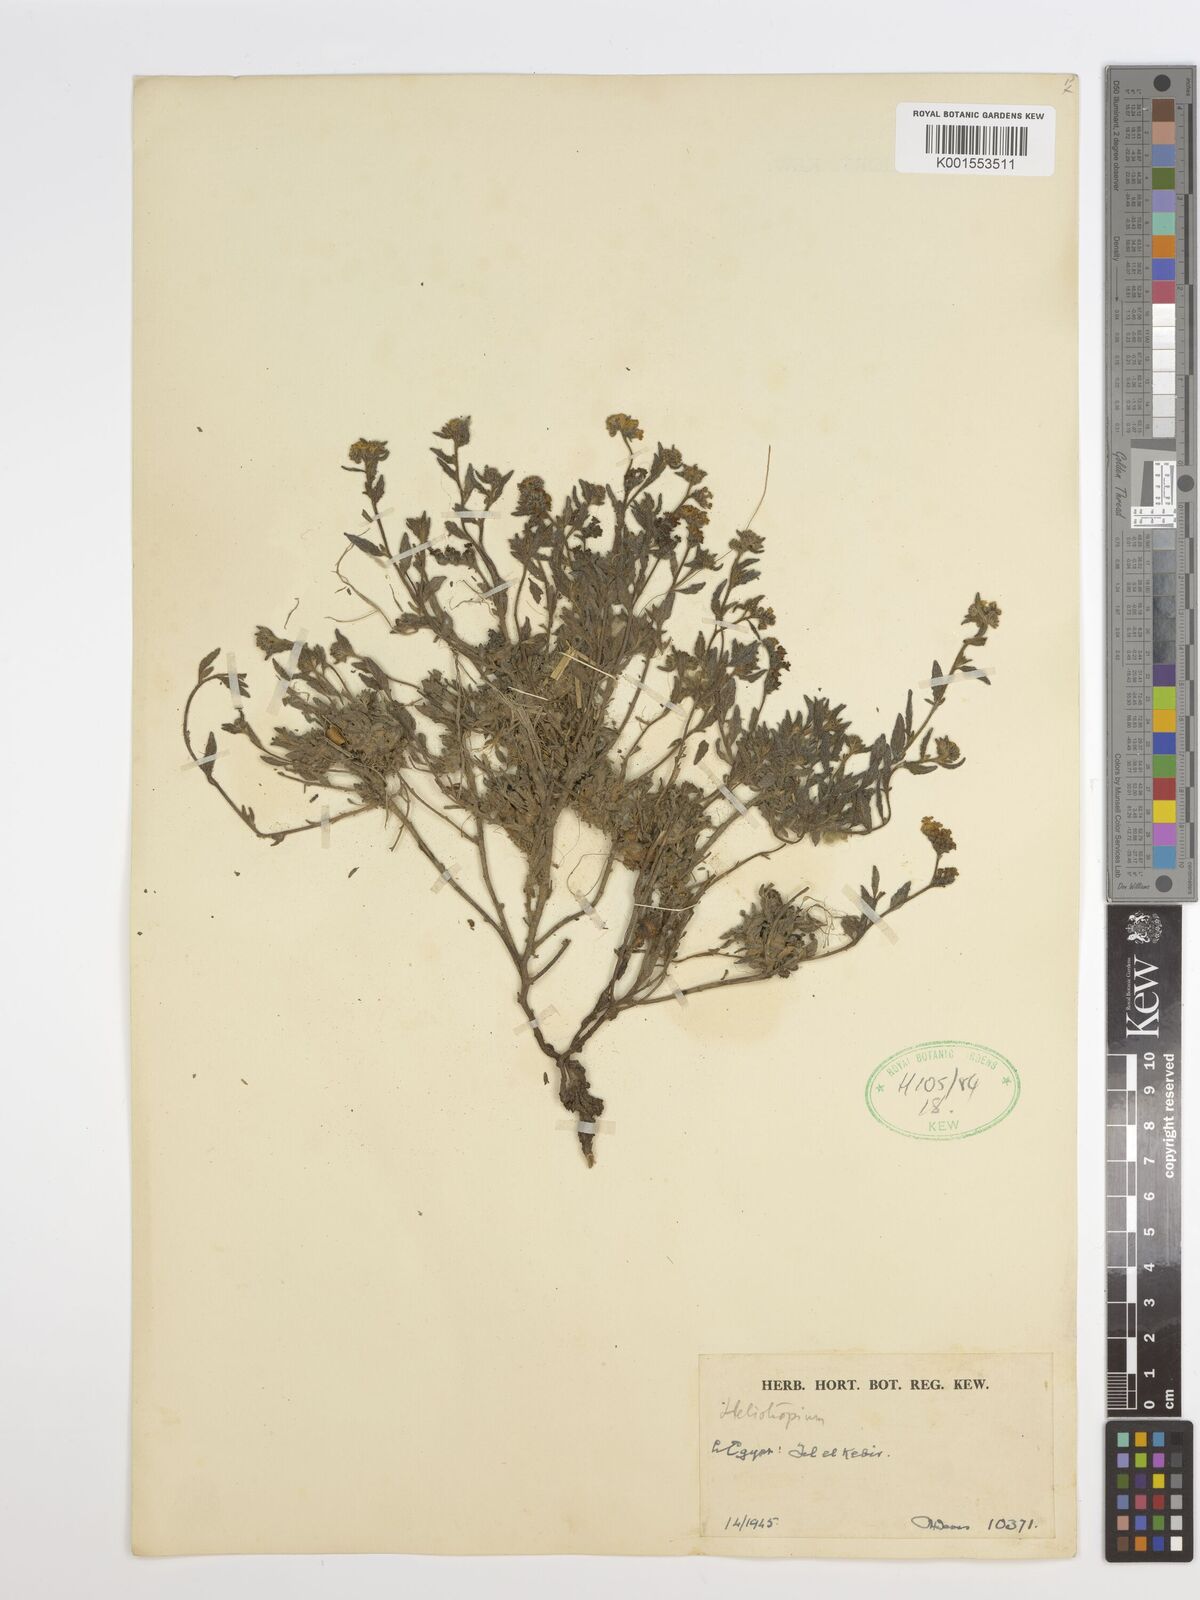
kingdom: Plantae
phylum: Tracheophyta
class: Magnoliopsida
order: Boraginales
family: Heliotropiaceae
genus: Heliotropium
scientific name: Heliotropium
